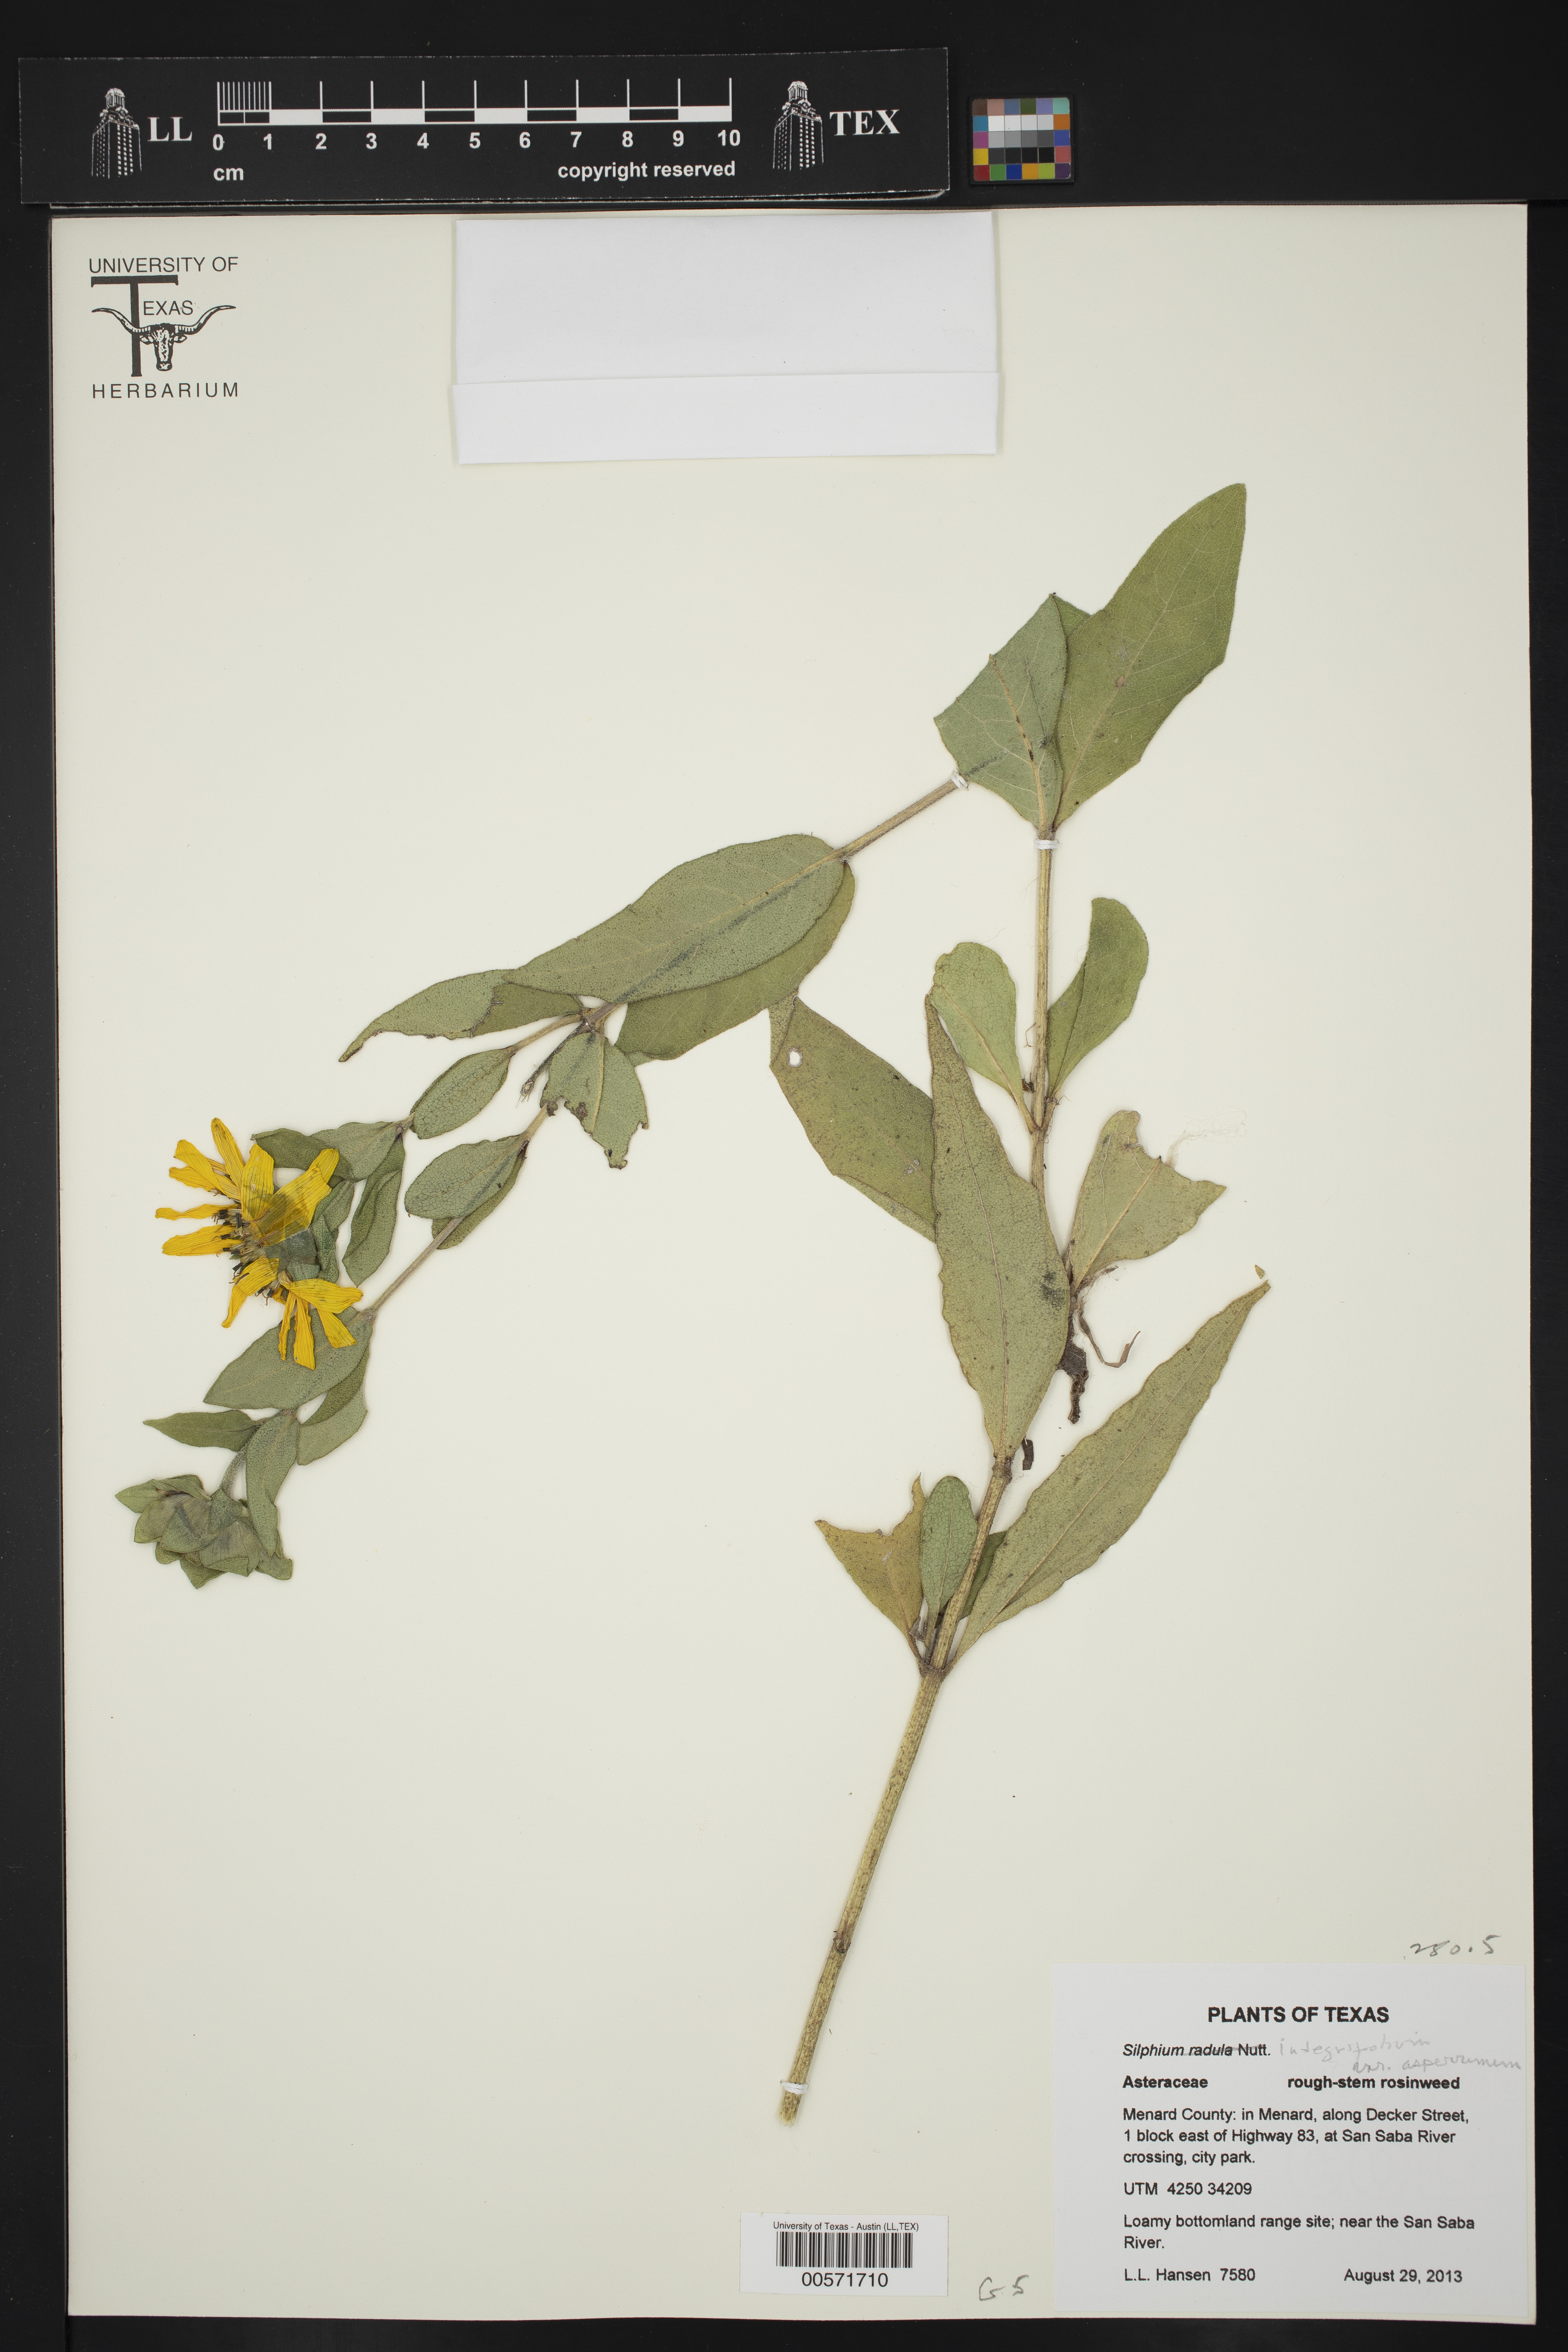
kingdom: Plantae
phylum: Tracheophyta
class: Magnoliopsida
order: Asterales
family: Asteraceae
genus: Silphium
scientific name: Silphium asperrimum
